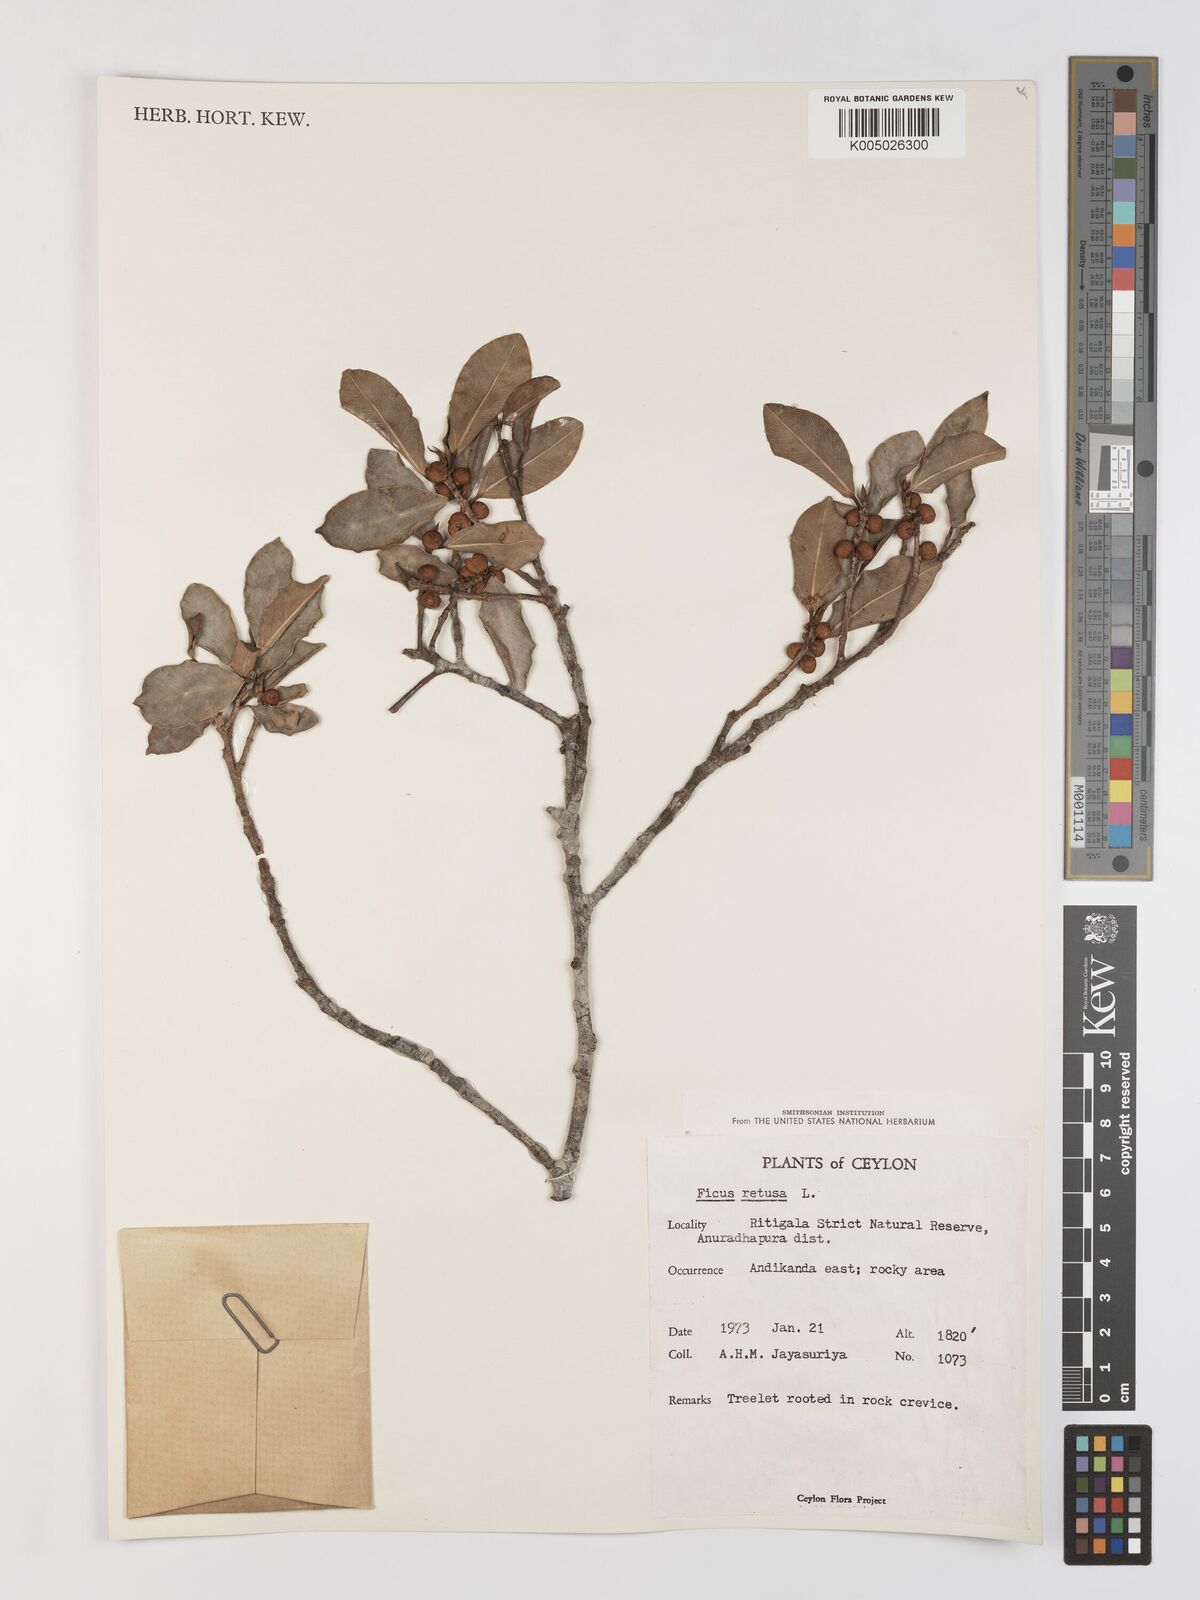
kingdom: Plantae
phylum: Tracheophyta
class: Magnoliopsida
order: Rosales
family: Moraceae
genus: Ficus
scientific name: Ficus
